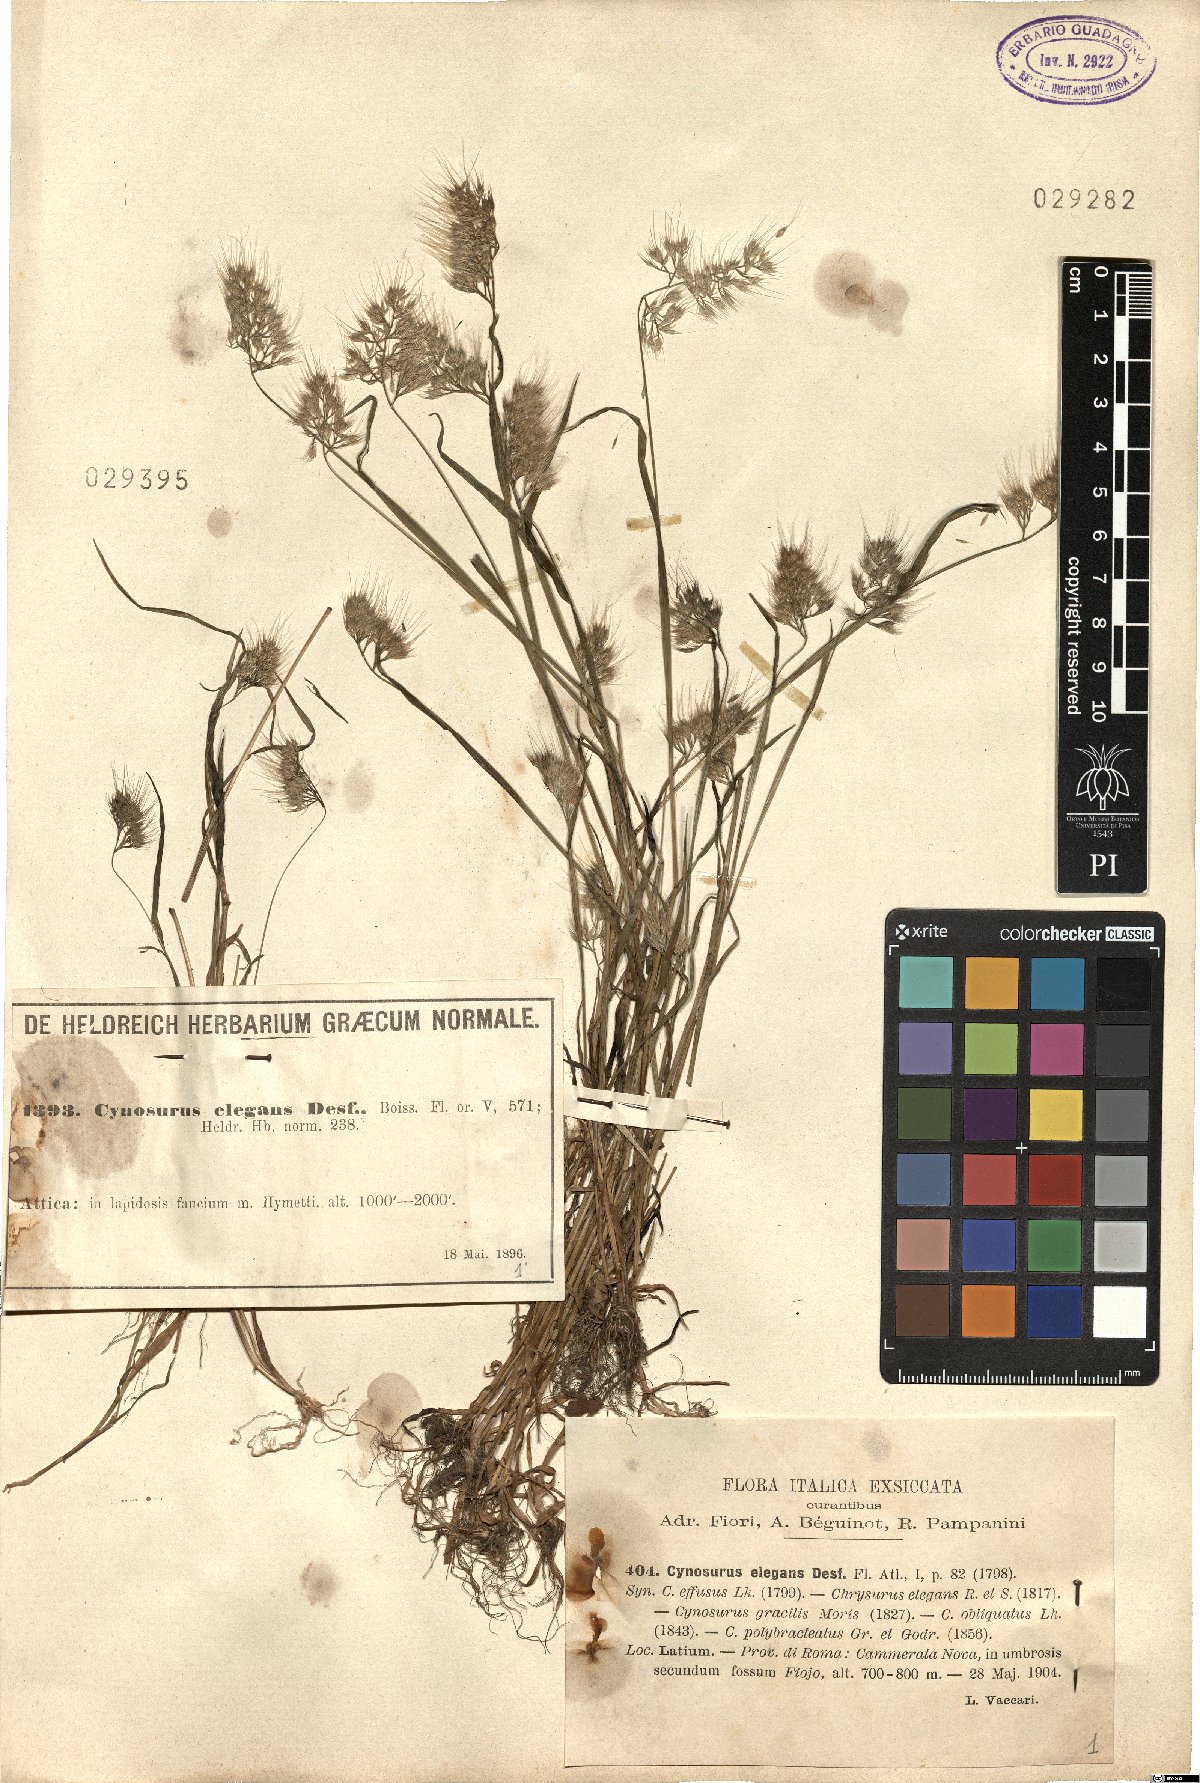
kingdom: Plantae
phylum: Tracheophyta
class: Liliopsida
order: Poales
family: Poaceae
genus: Cynosurus
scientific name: Cynosurus elegans
